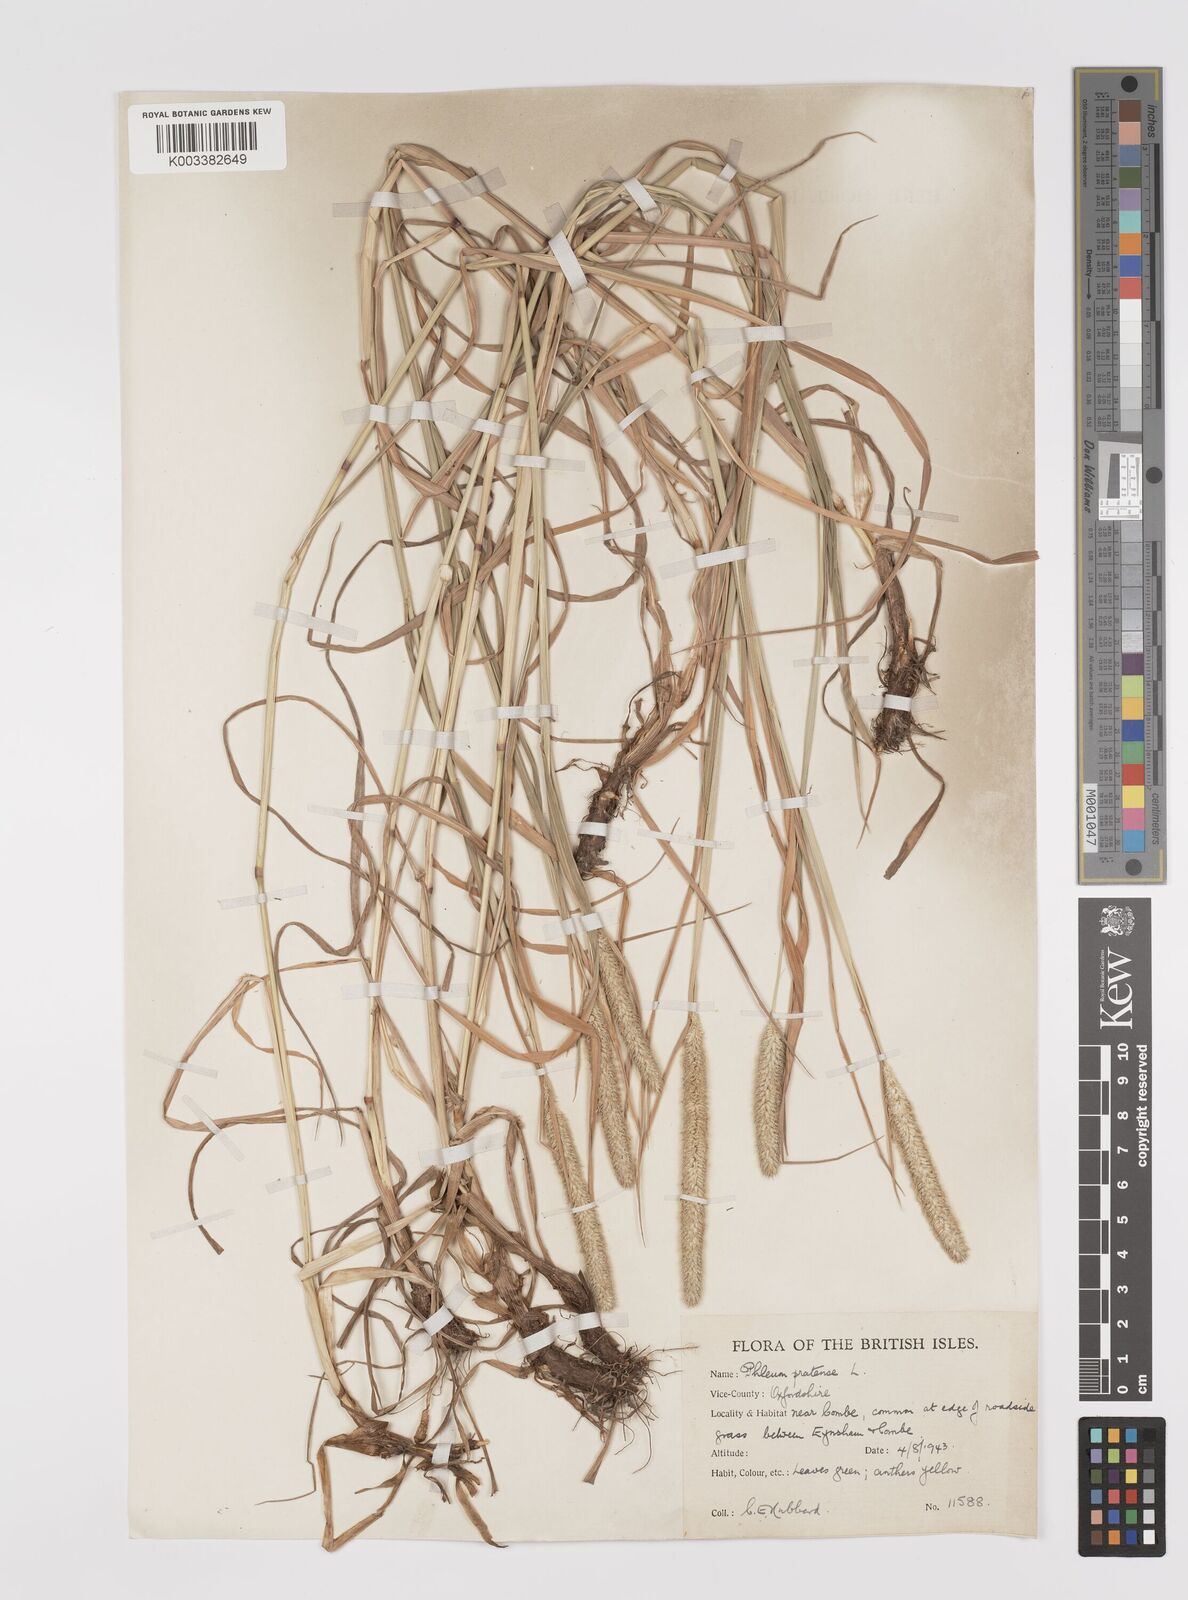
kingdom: Plantae
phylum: Tracheophyta
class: Liliopsida
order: Poales
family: Poaceae
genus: Phleum
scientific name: Phleum pratense
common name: Timothy grass
